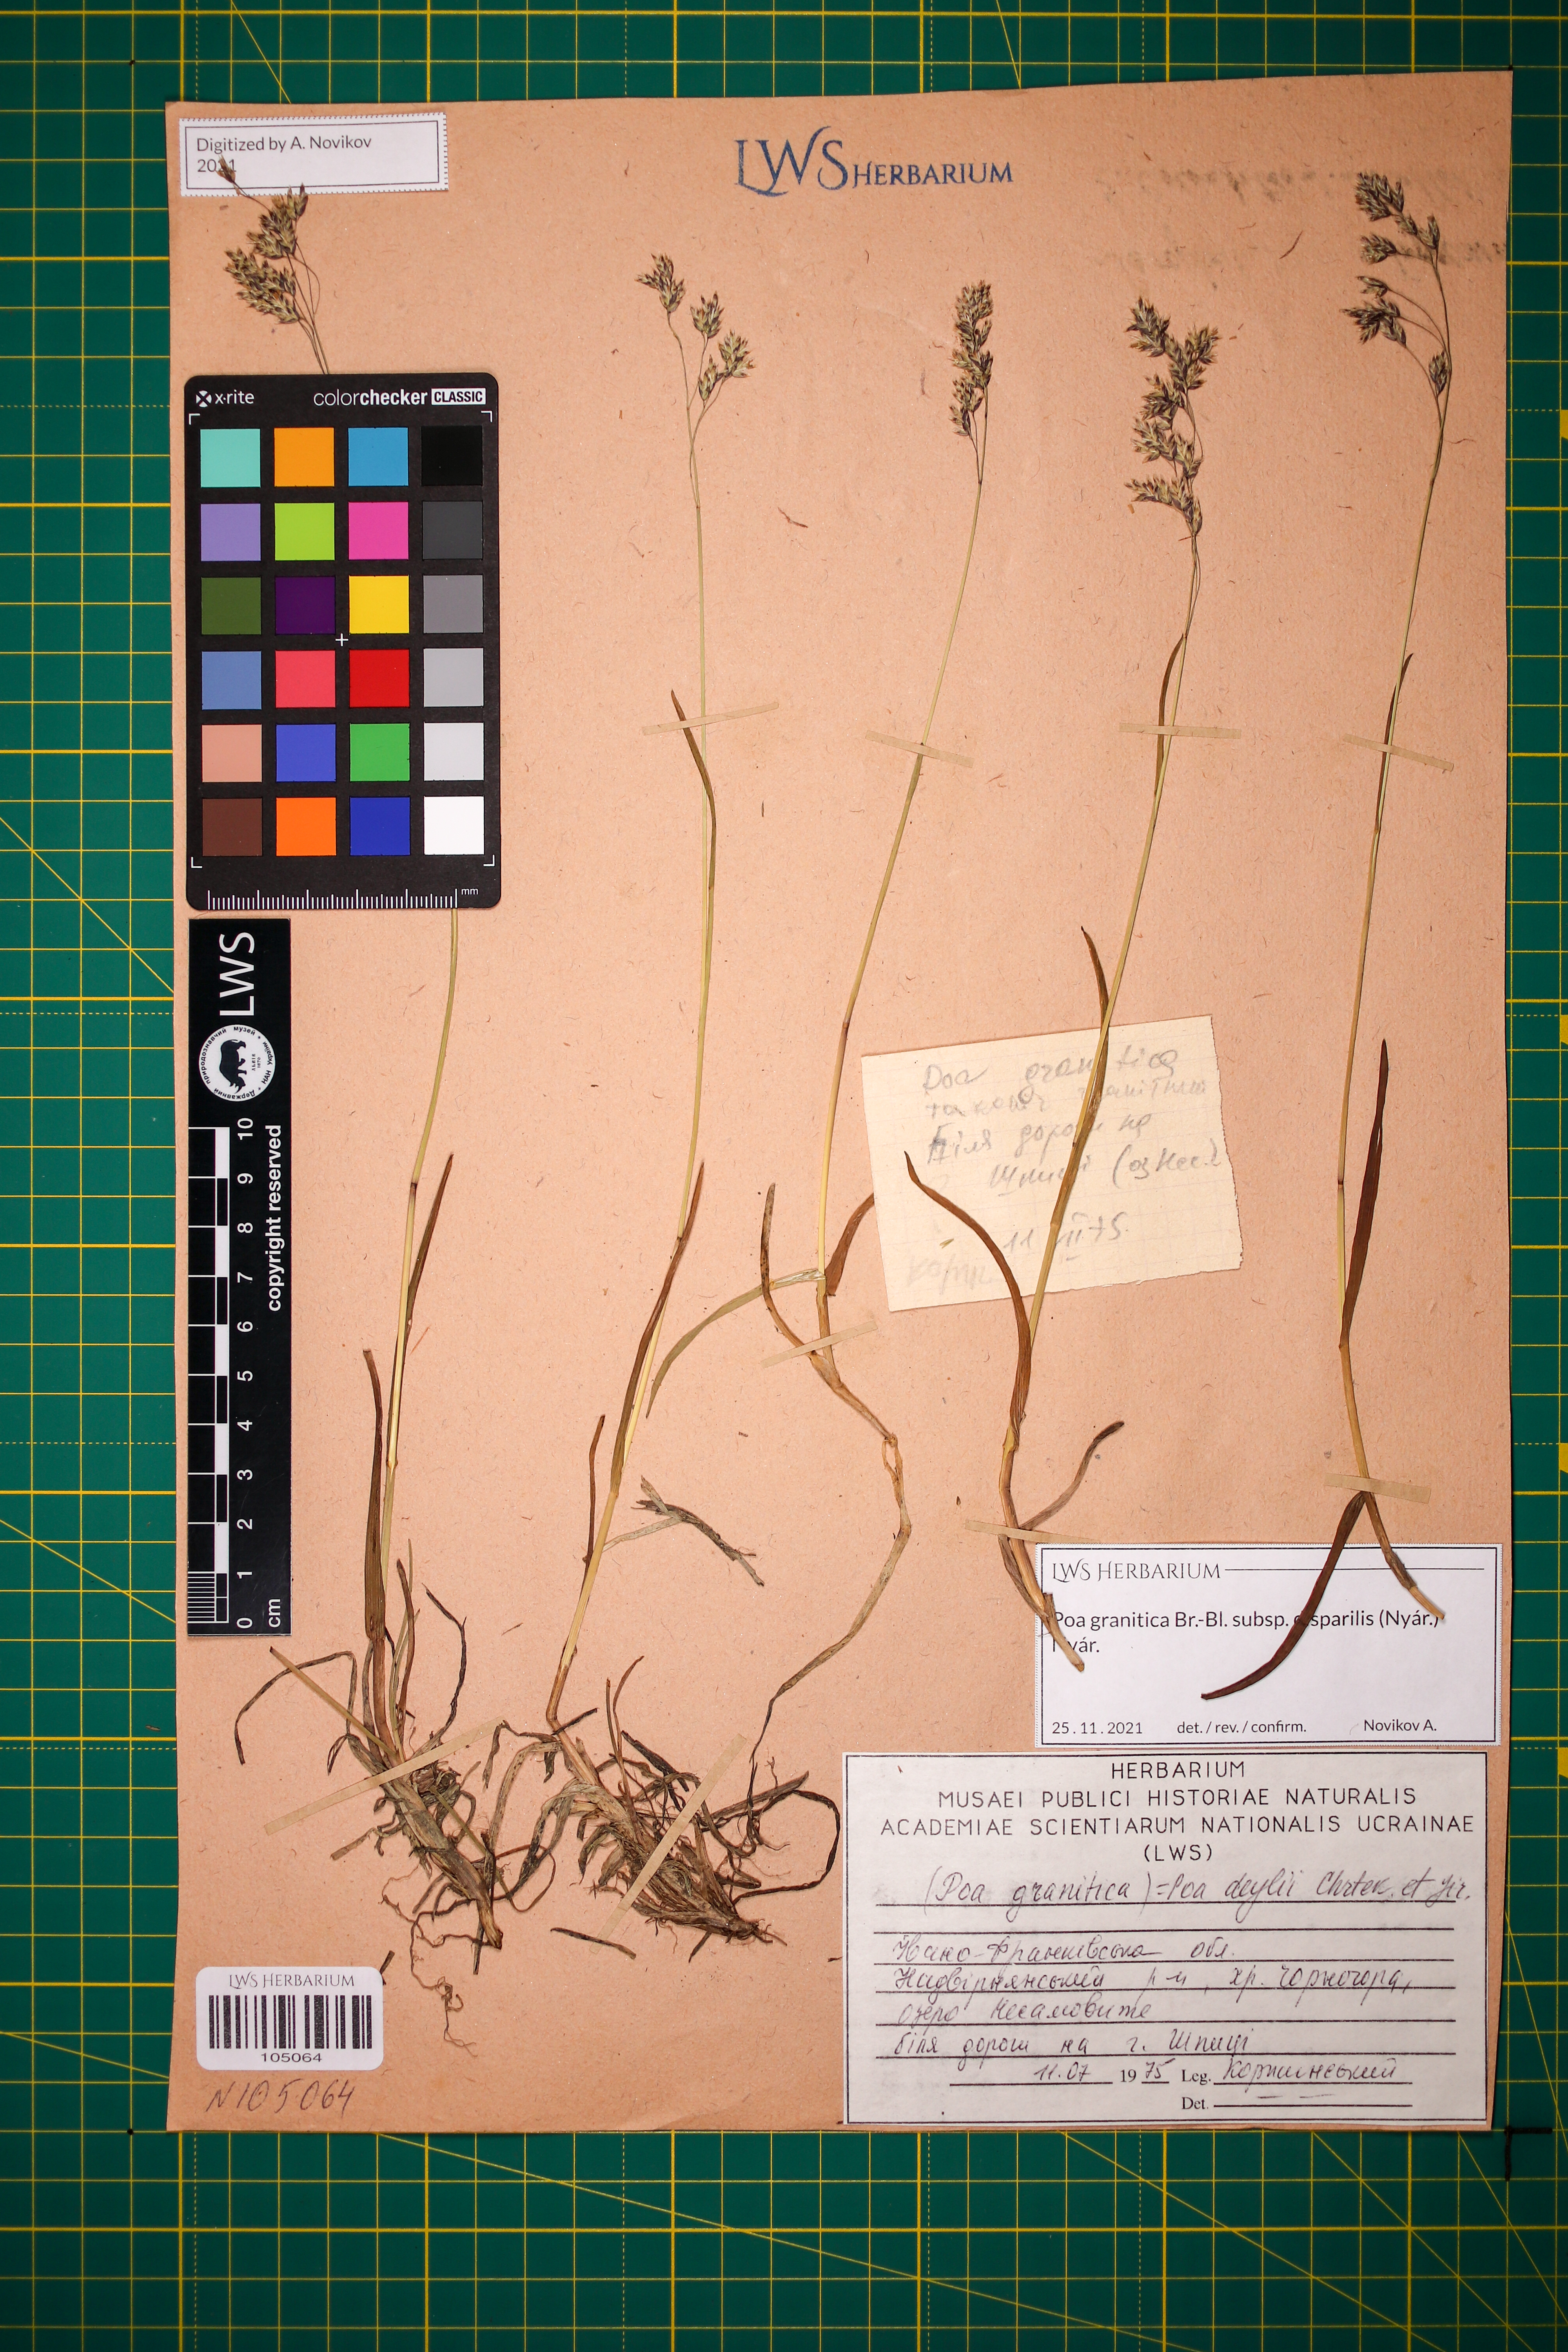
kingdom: Plantae
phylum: Tracheophyta
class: Liliopsida
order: Poales
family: Poaceae
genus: Poa
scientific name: Poa granitica
